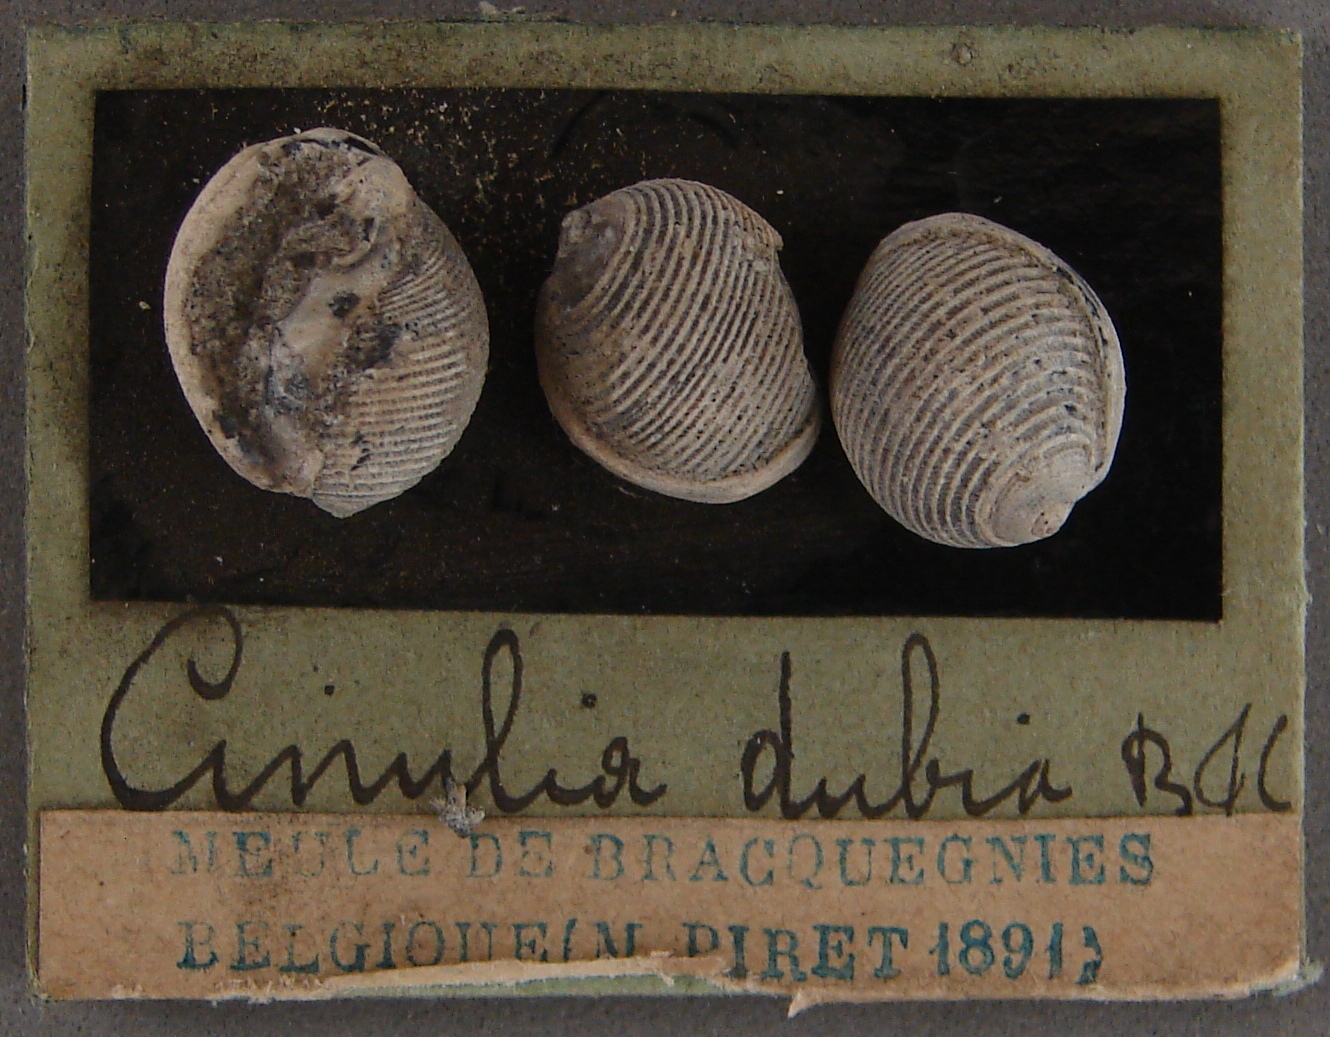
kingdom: Animalia
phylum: Mollusca
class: Gastropoda
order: Cephalaspidea
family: Ringiculidae
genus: Cinulia
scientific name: Cinulia
